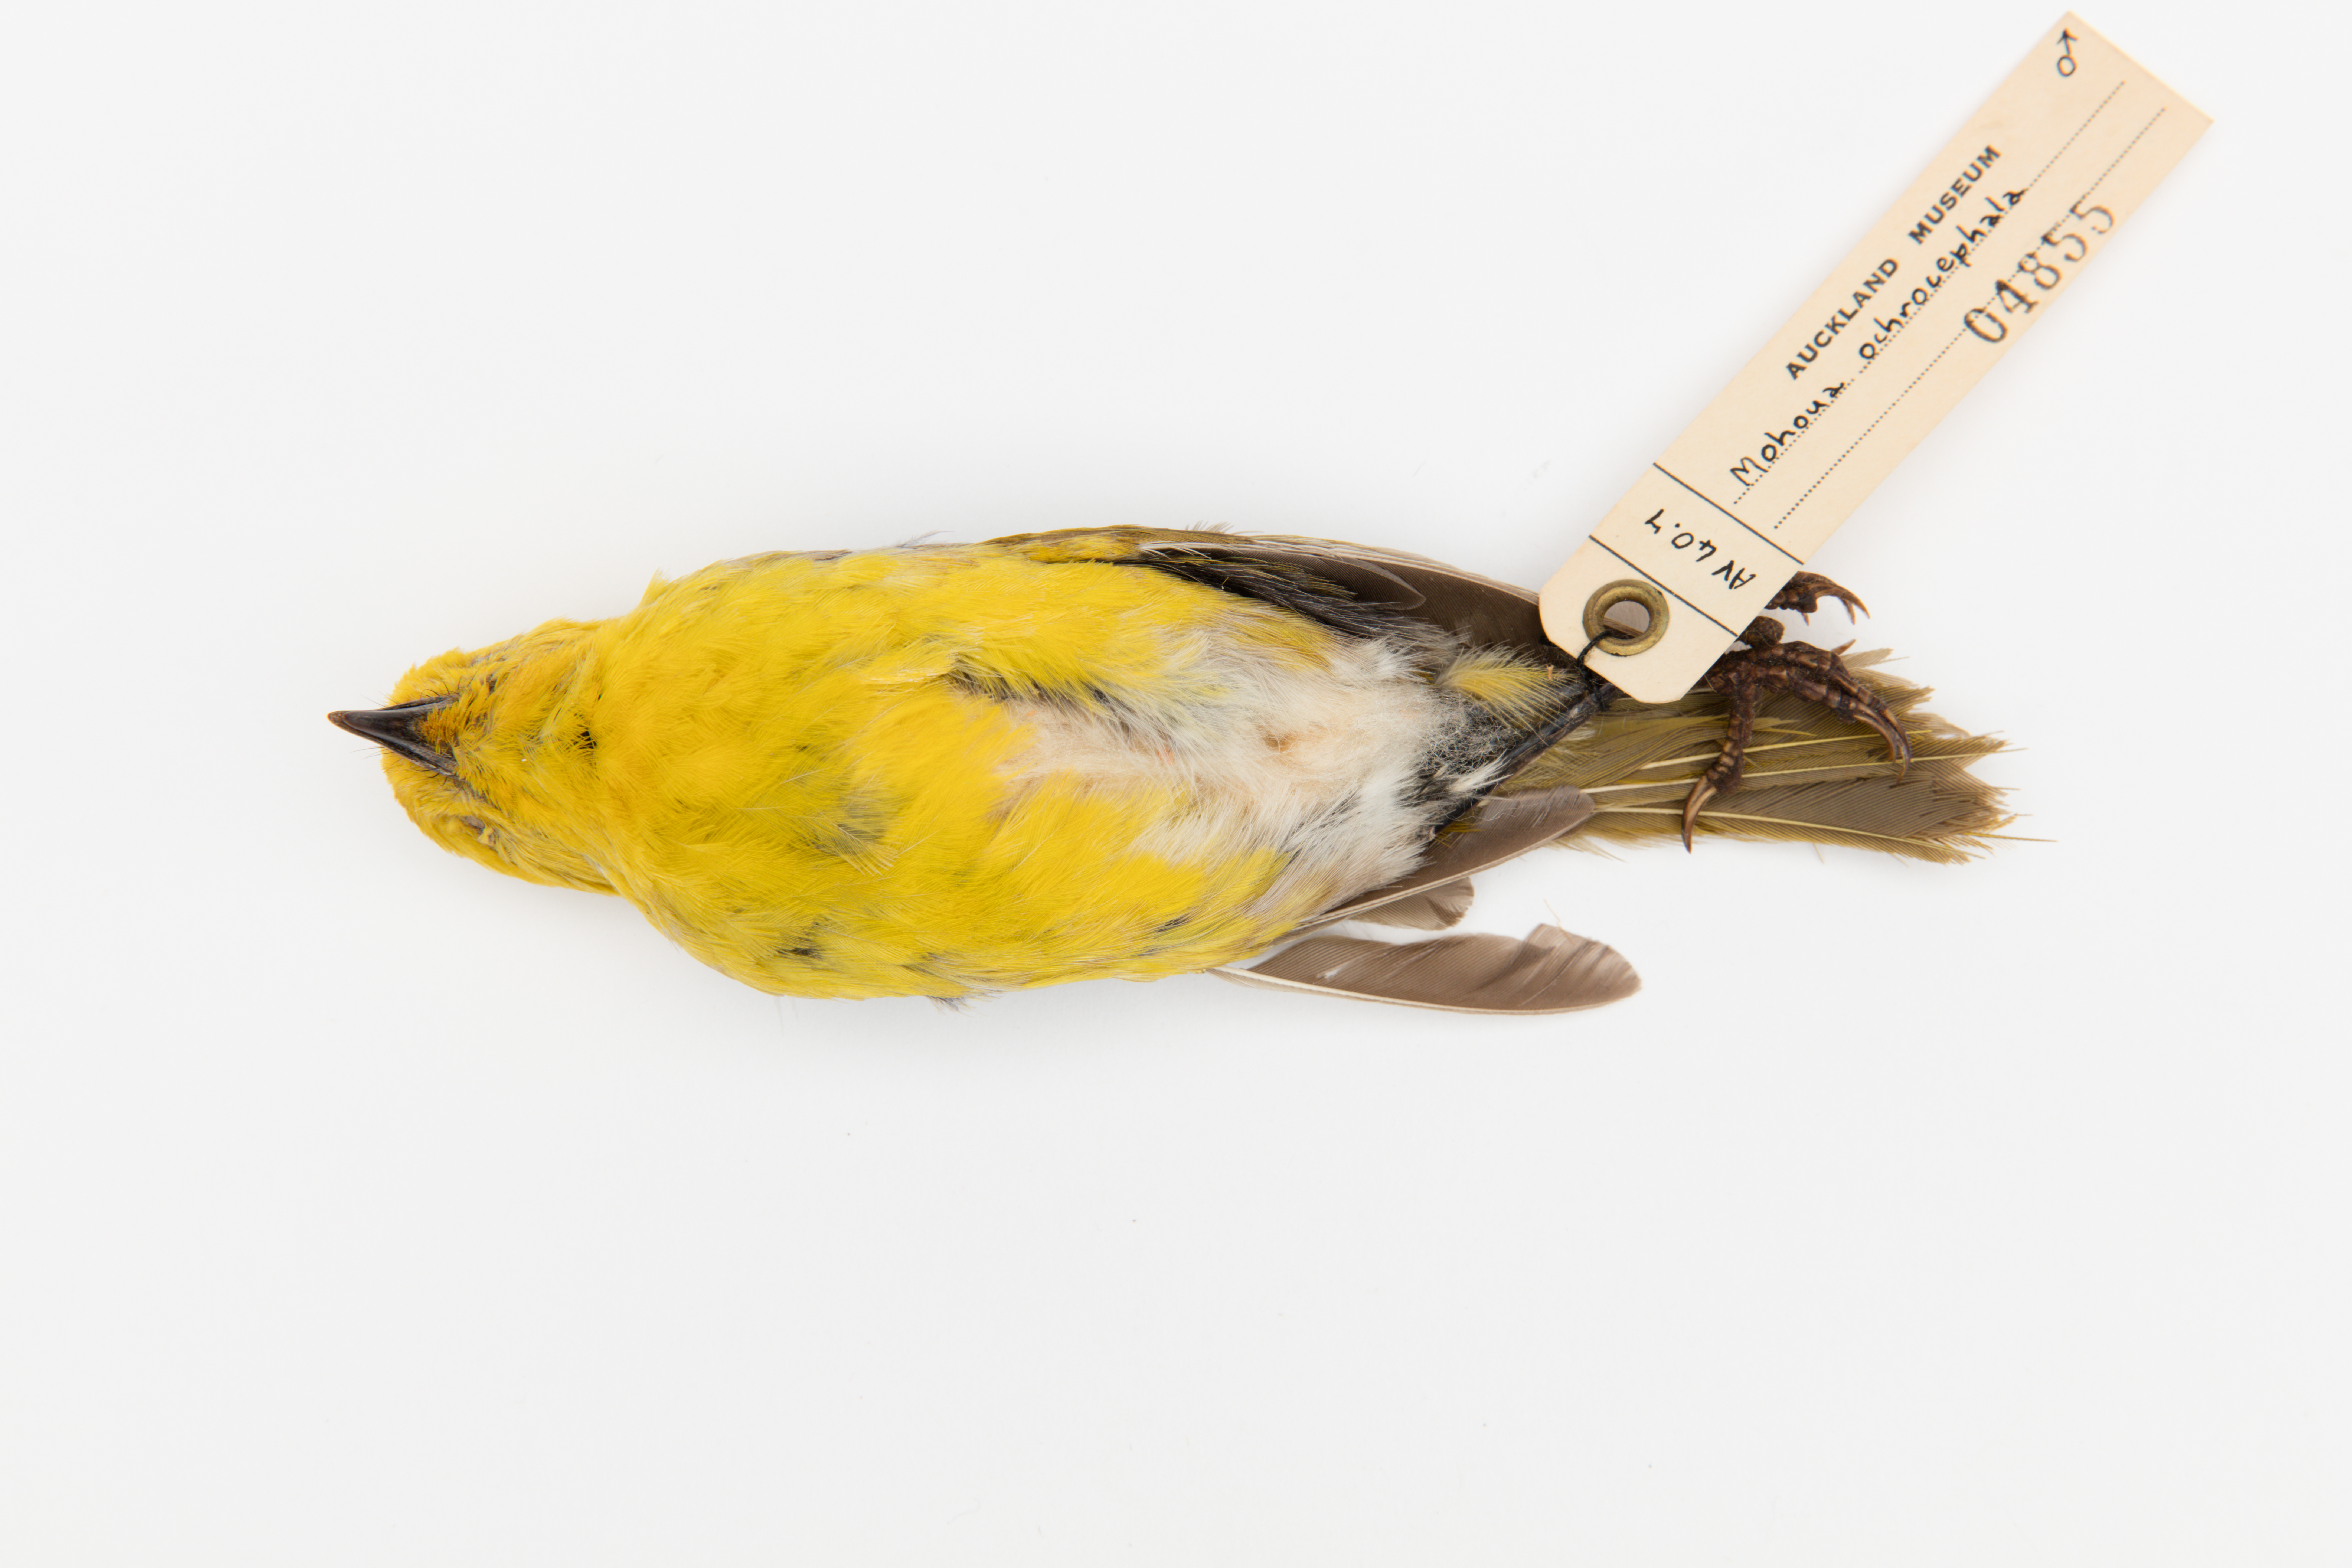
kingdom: Animalia
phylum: Chordata
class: Aves
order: Passeriformes
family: Acanthizidae
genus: Mohoua
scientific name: Mohoua ochrocephala
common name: Yellowhead
